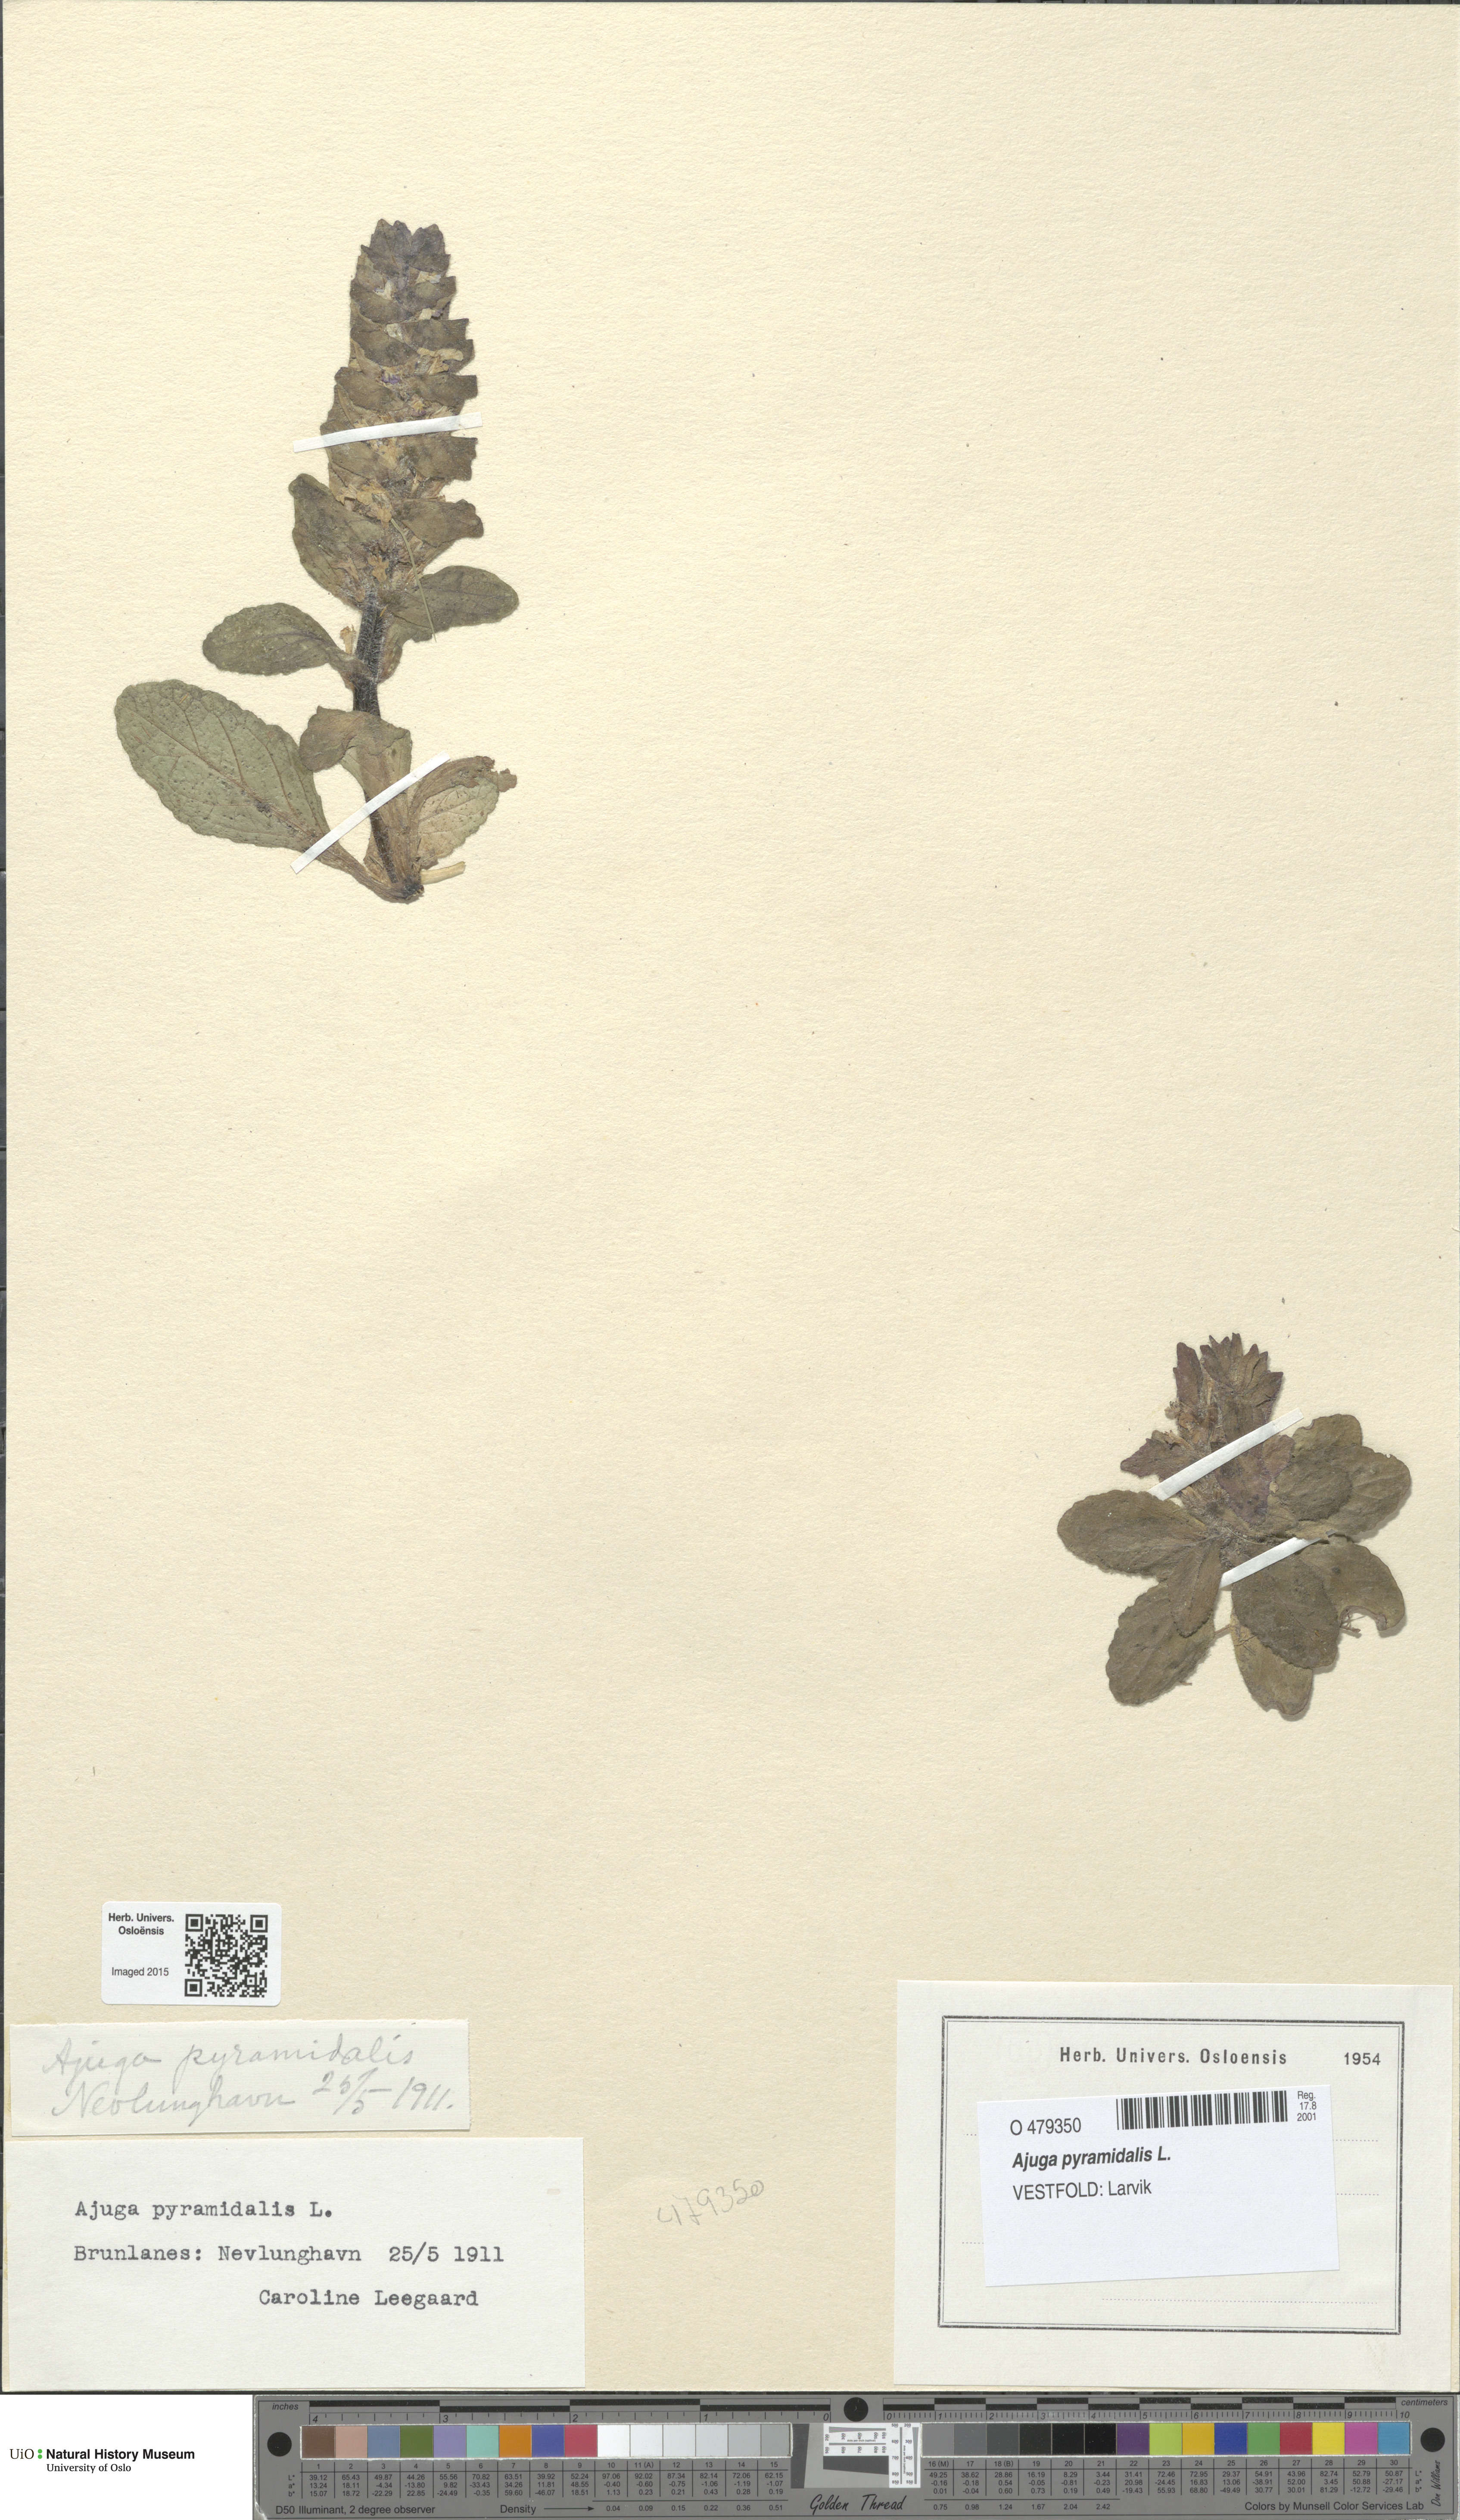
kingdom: Plantae
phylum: Tracheophyta
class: Magnoliopsida
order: Lamiales
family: Lamiaceae
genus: Ajuga
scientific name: Ajuga pyramidalis
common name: Pyramid bugle
